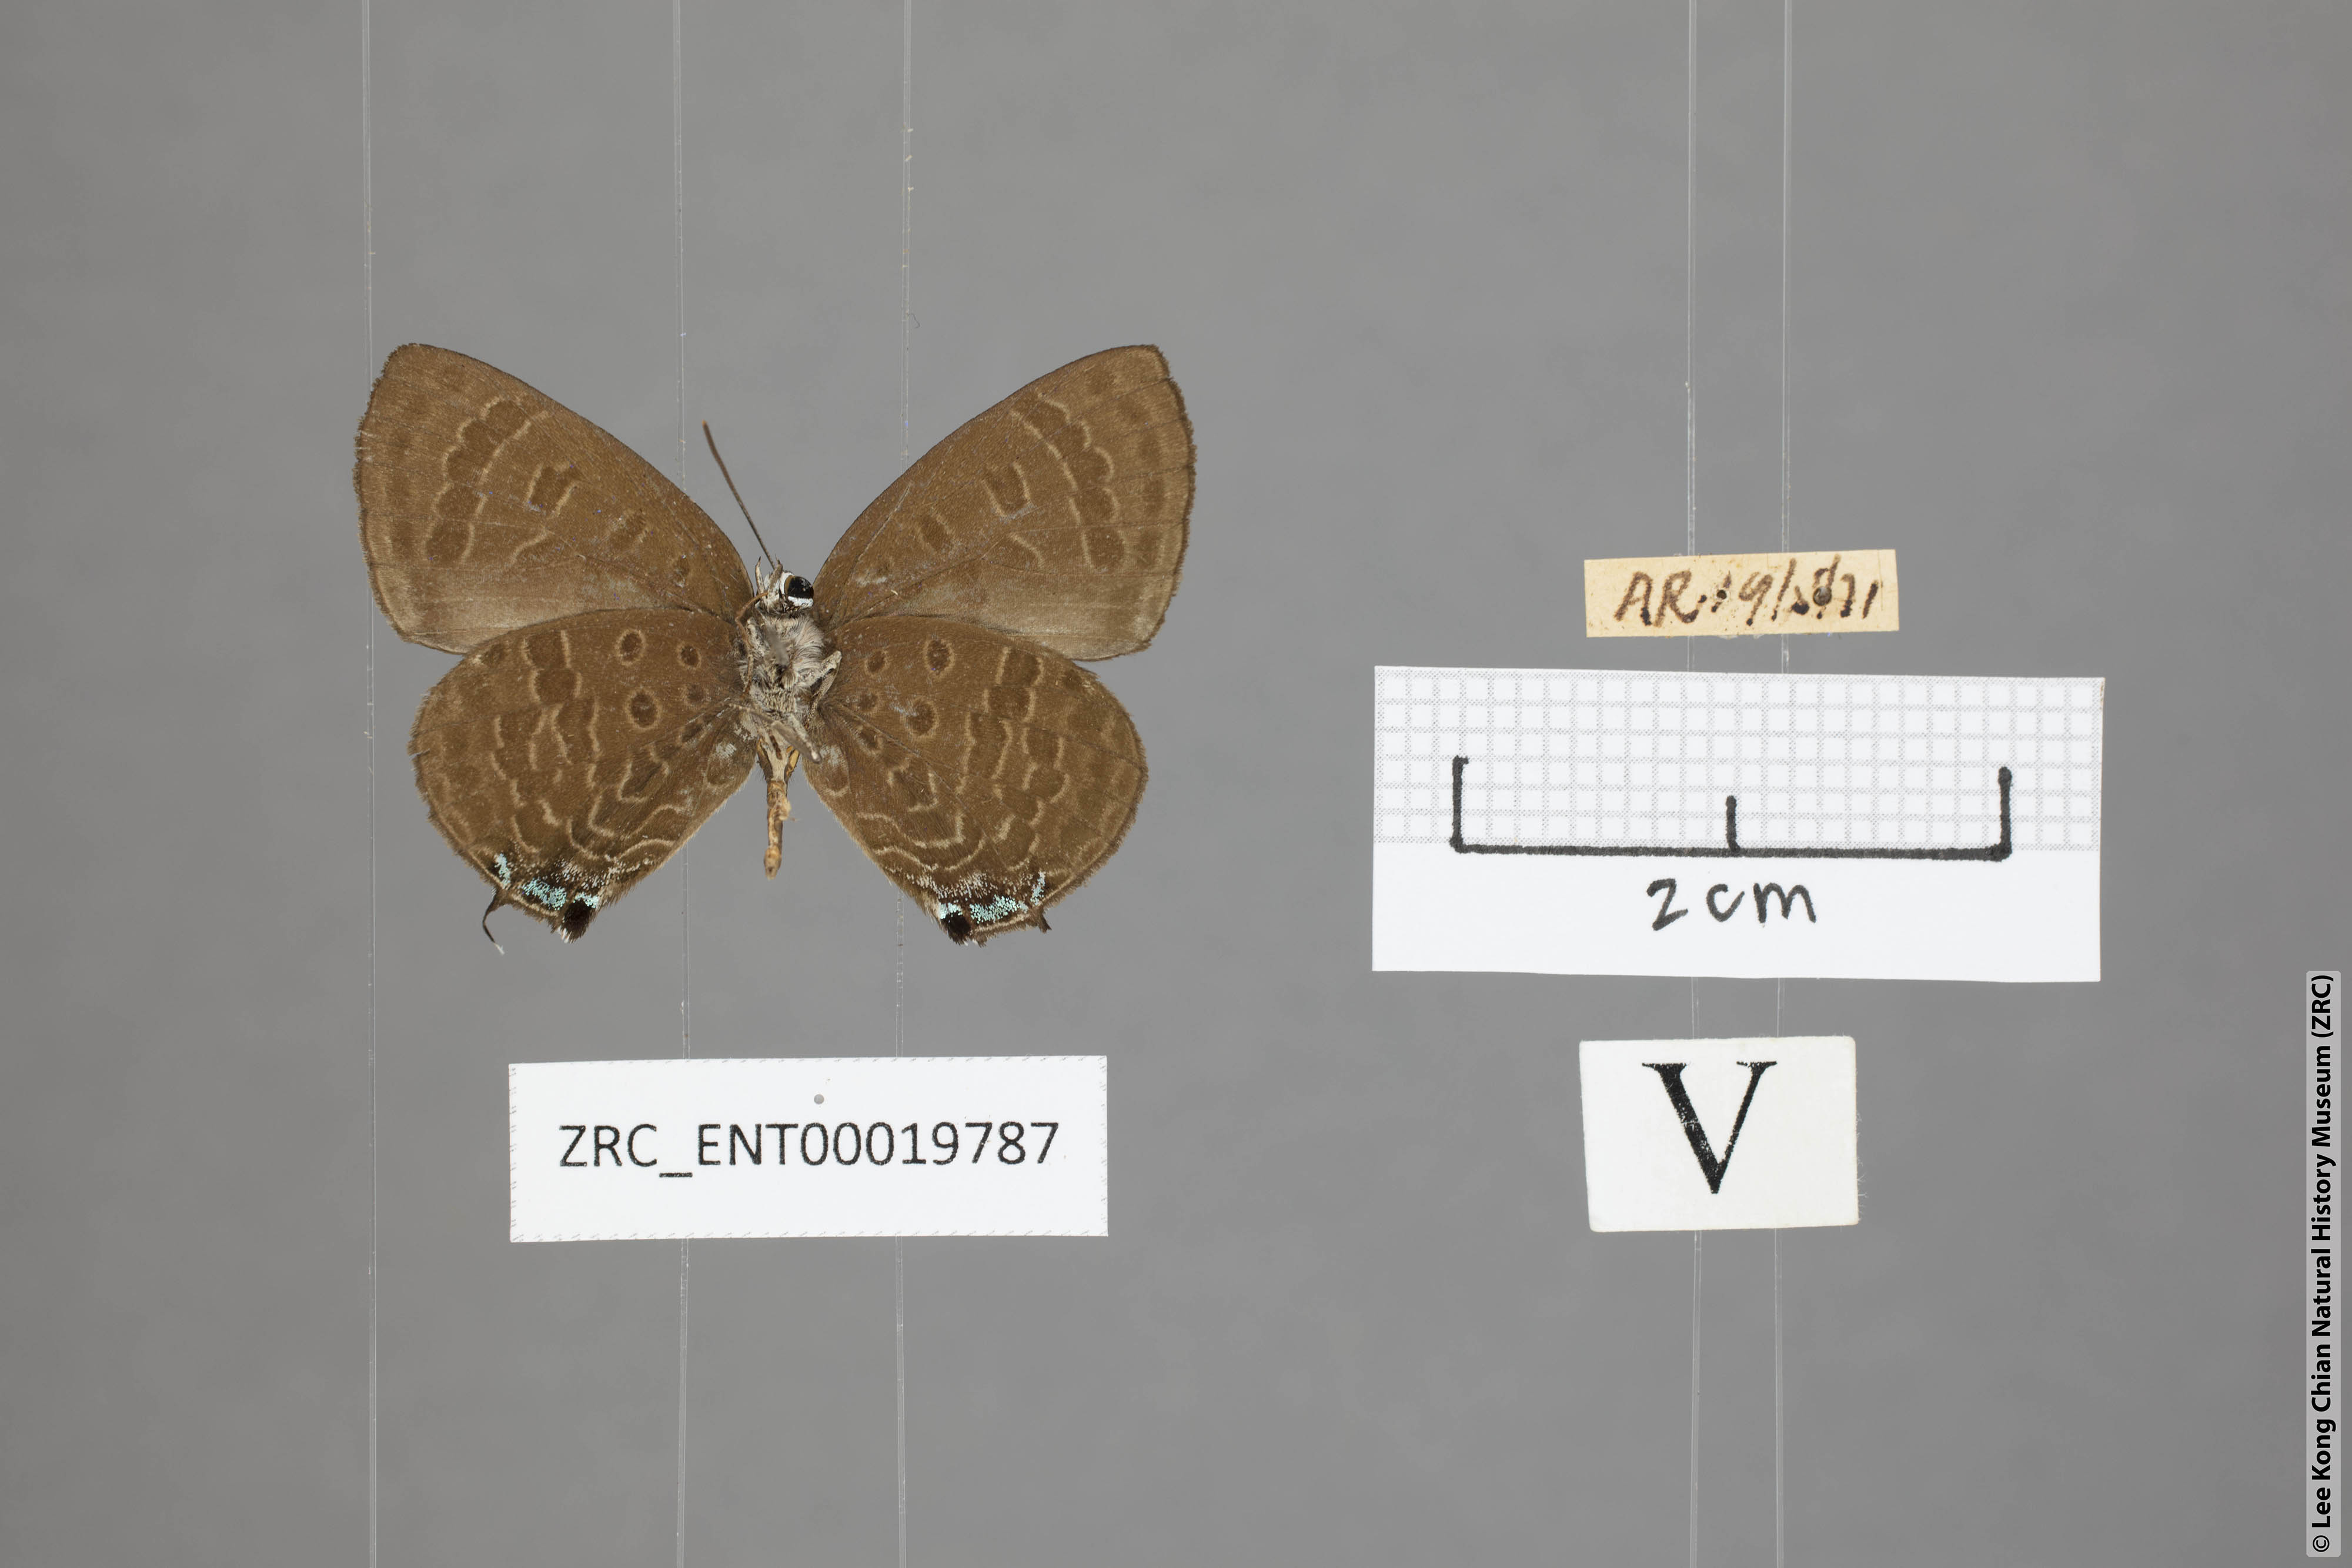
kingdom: Animalia
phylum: Arthropoda
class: Insecta
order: Lepidoptera
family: Lycaenidae
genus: Arhopala
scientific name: Arhopala phaenops
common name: Sumatran oakblue
